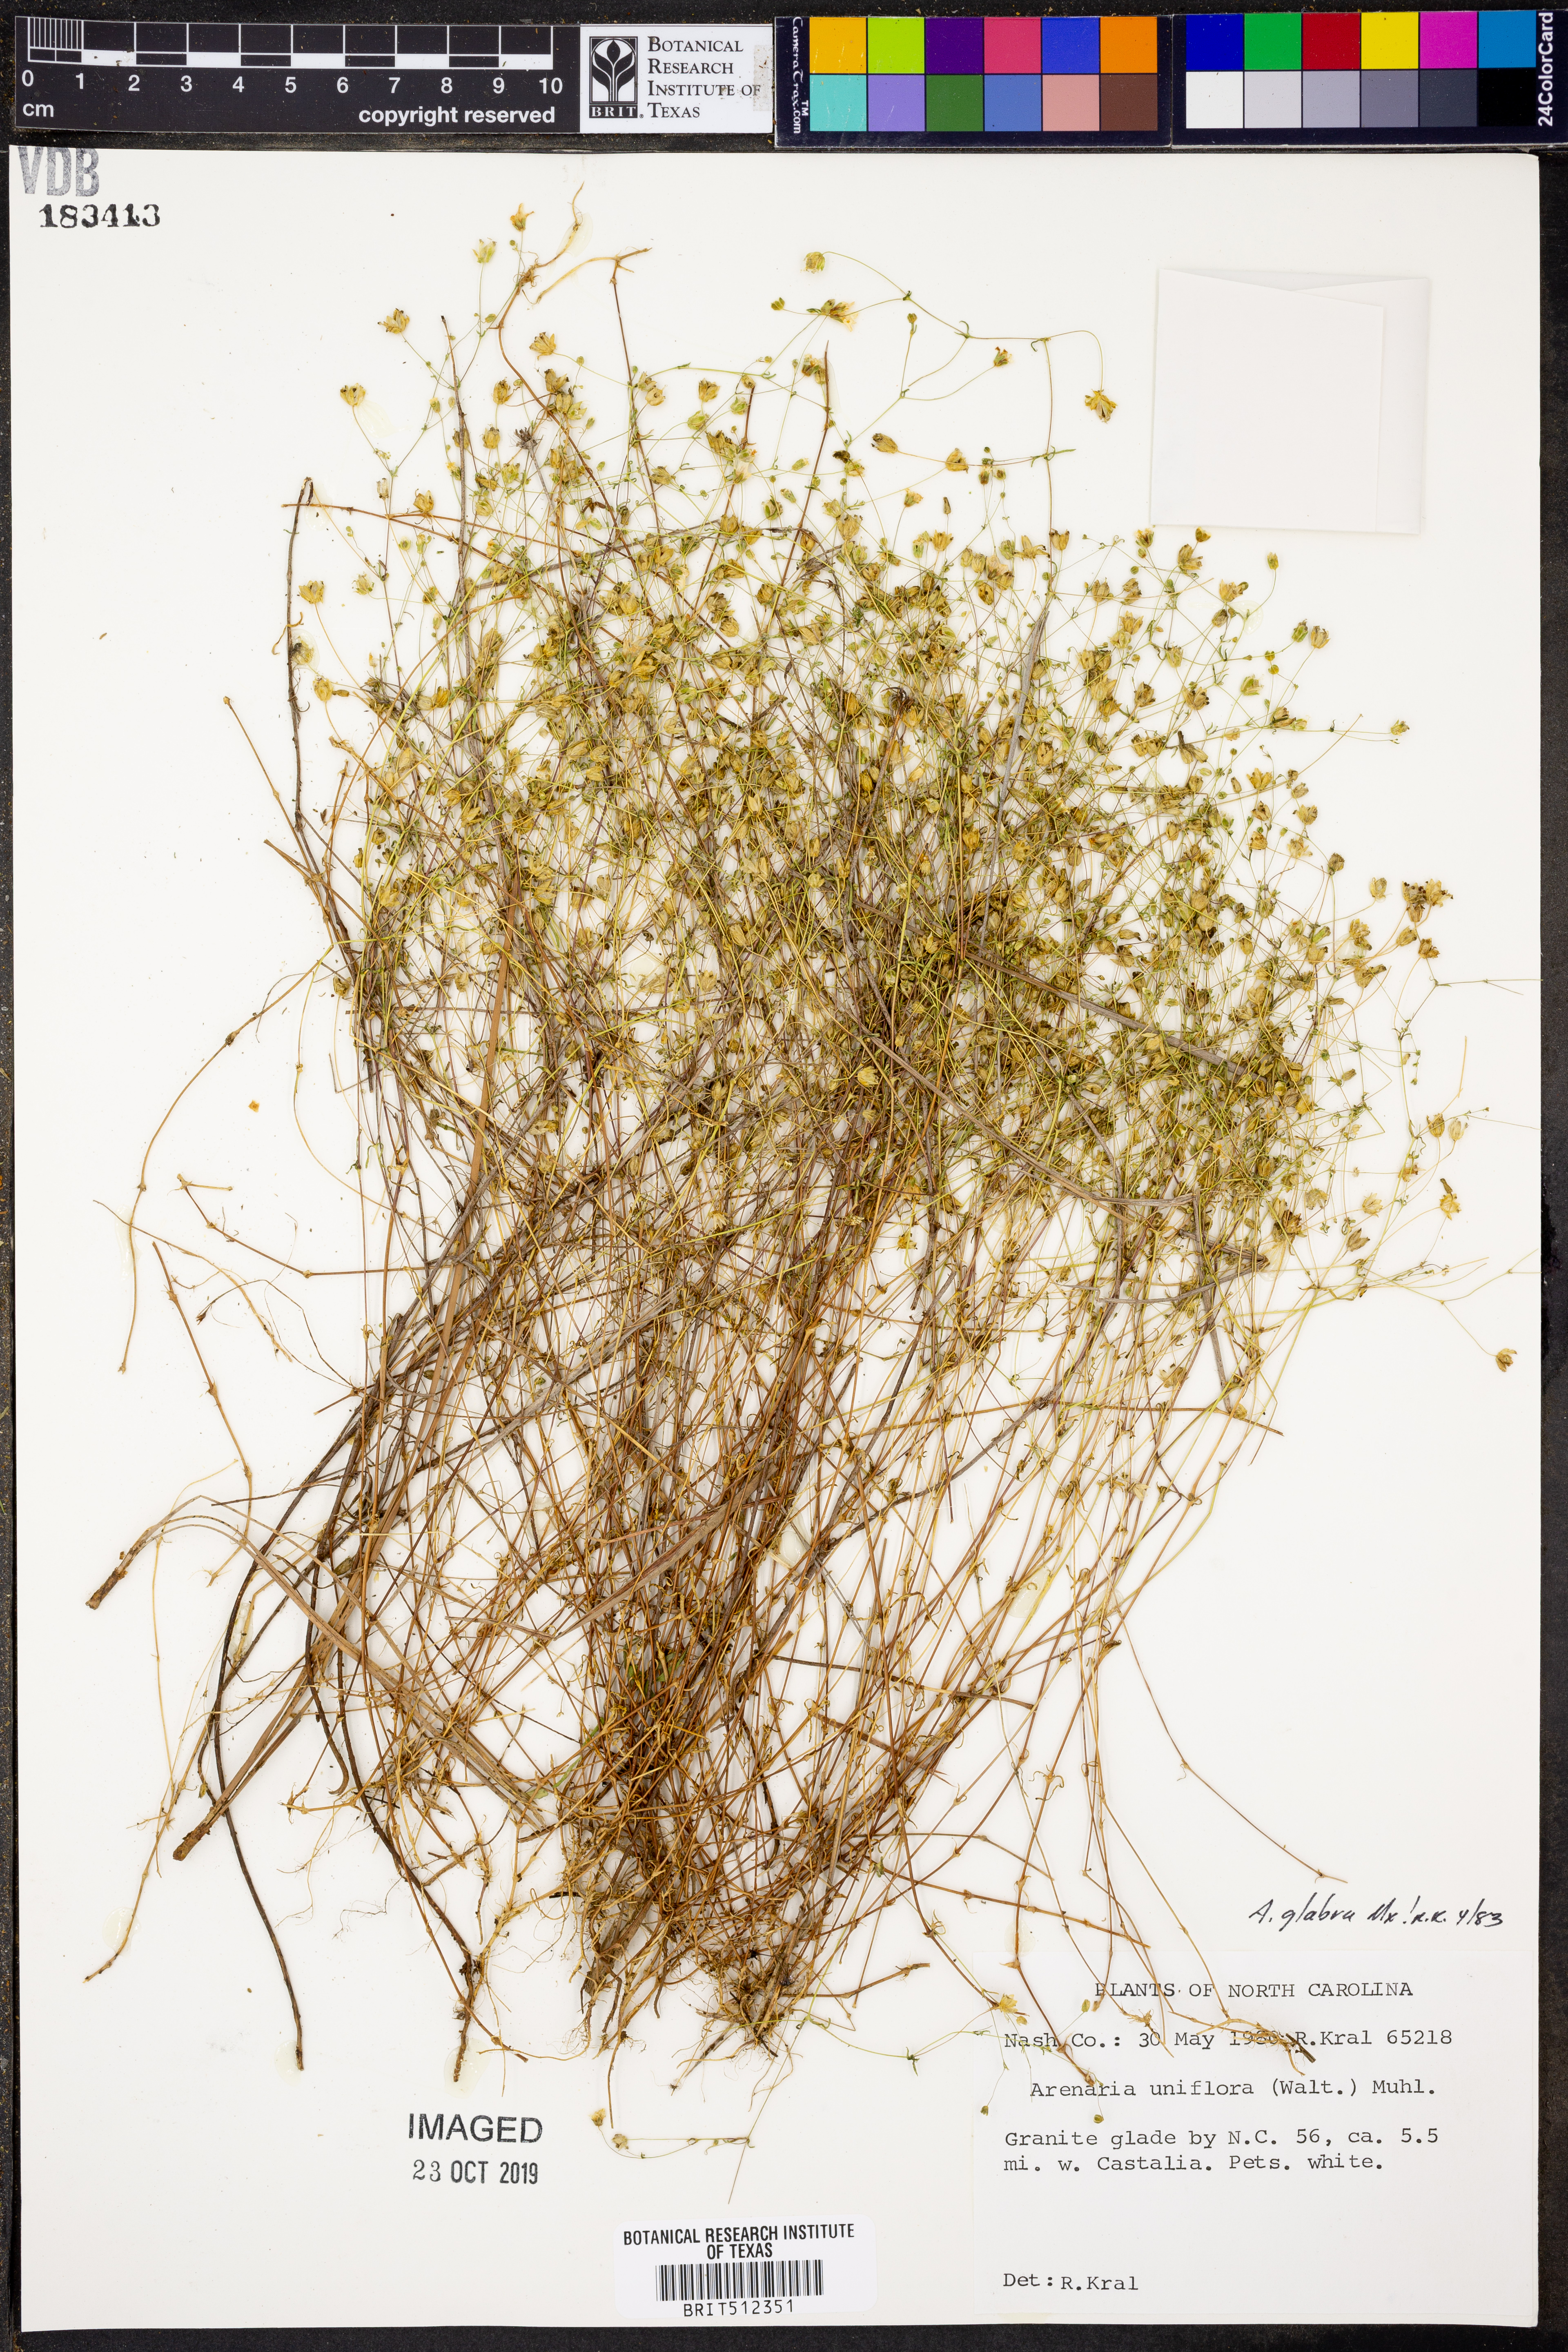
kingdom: Plantae
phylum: Tracheophyta
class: Magnoliopsida
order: Caryophyllales
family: Caryophyllaceae
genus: Geocarpon
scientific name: Geocarpon glabrum
